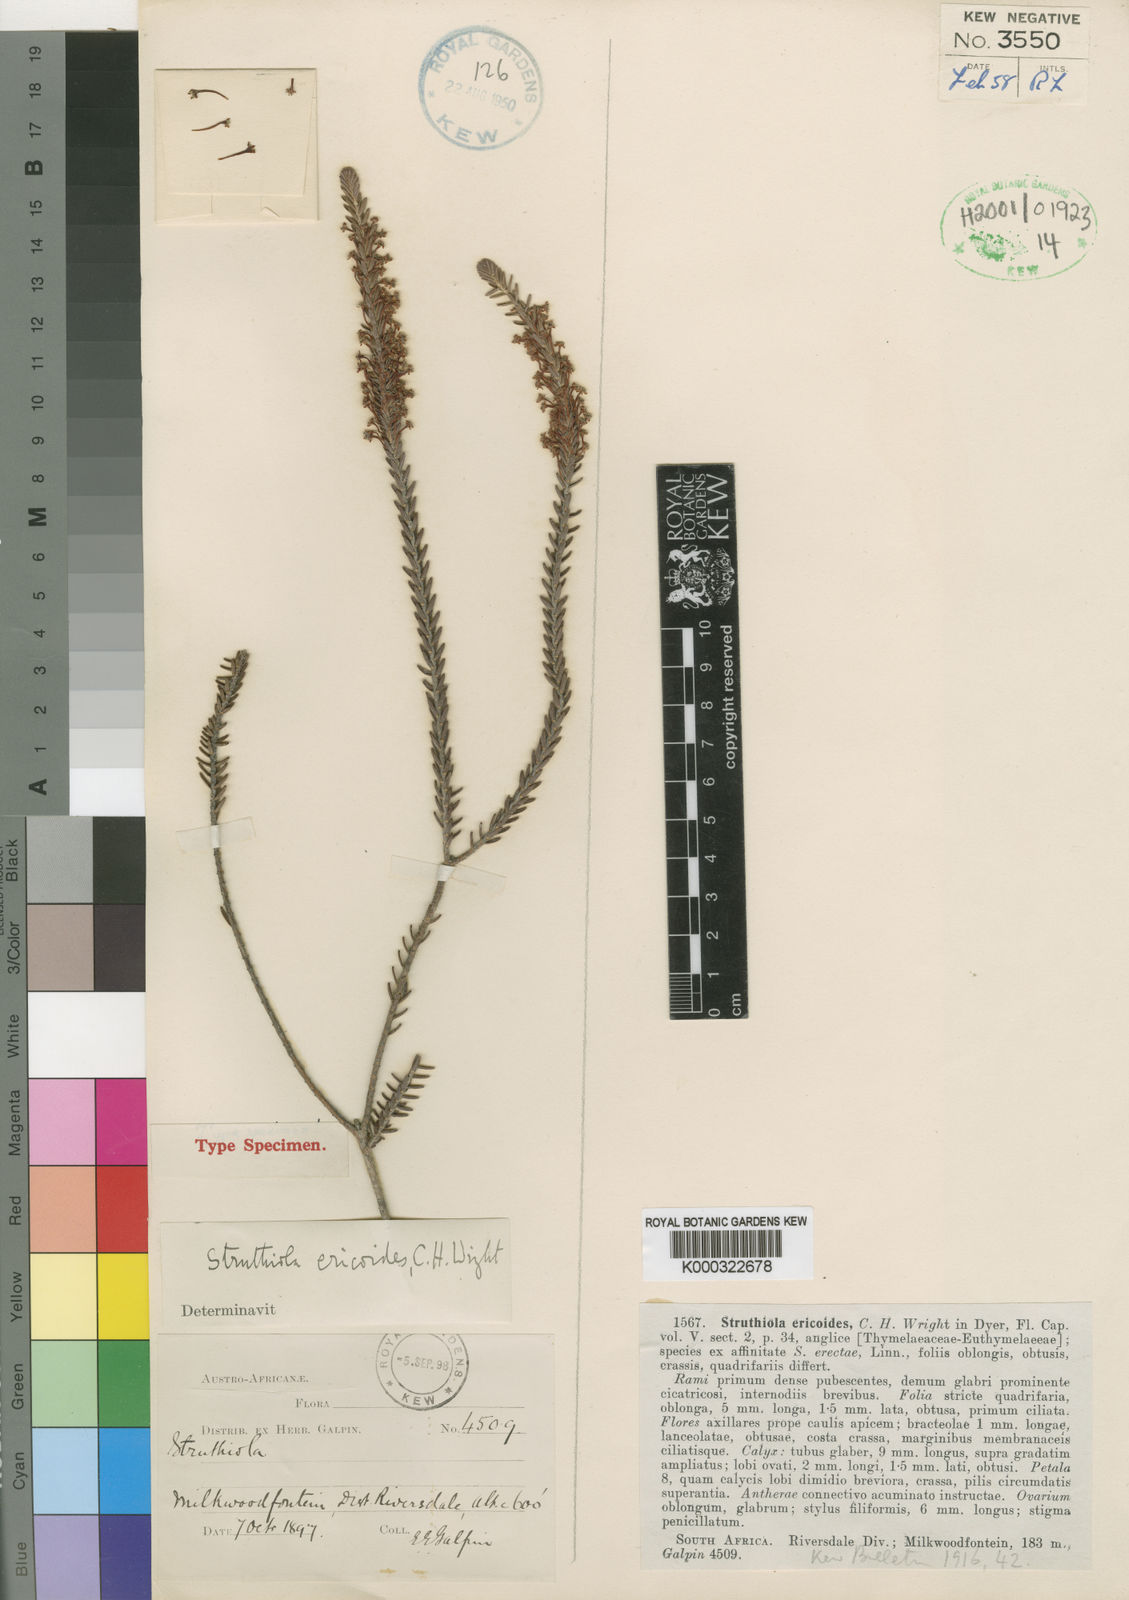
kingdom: Plantae
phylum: Tracheophyta
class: Magnoliopsida
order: Malvales
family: Thymelaeaceae
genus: Struthiola
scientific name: Struthiola ericoides
